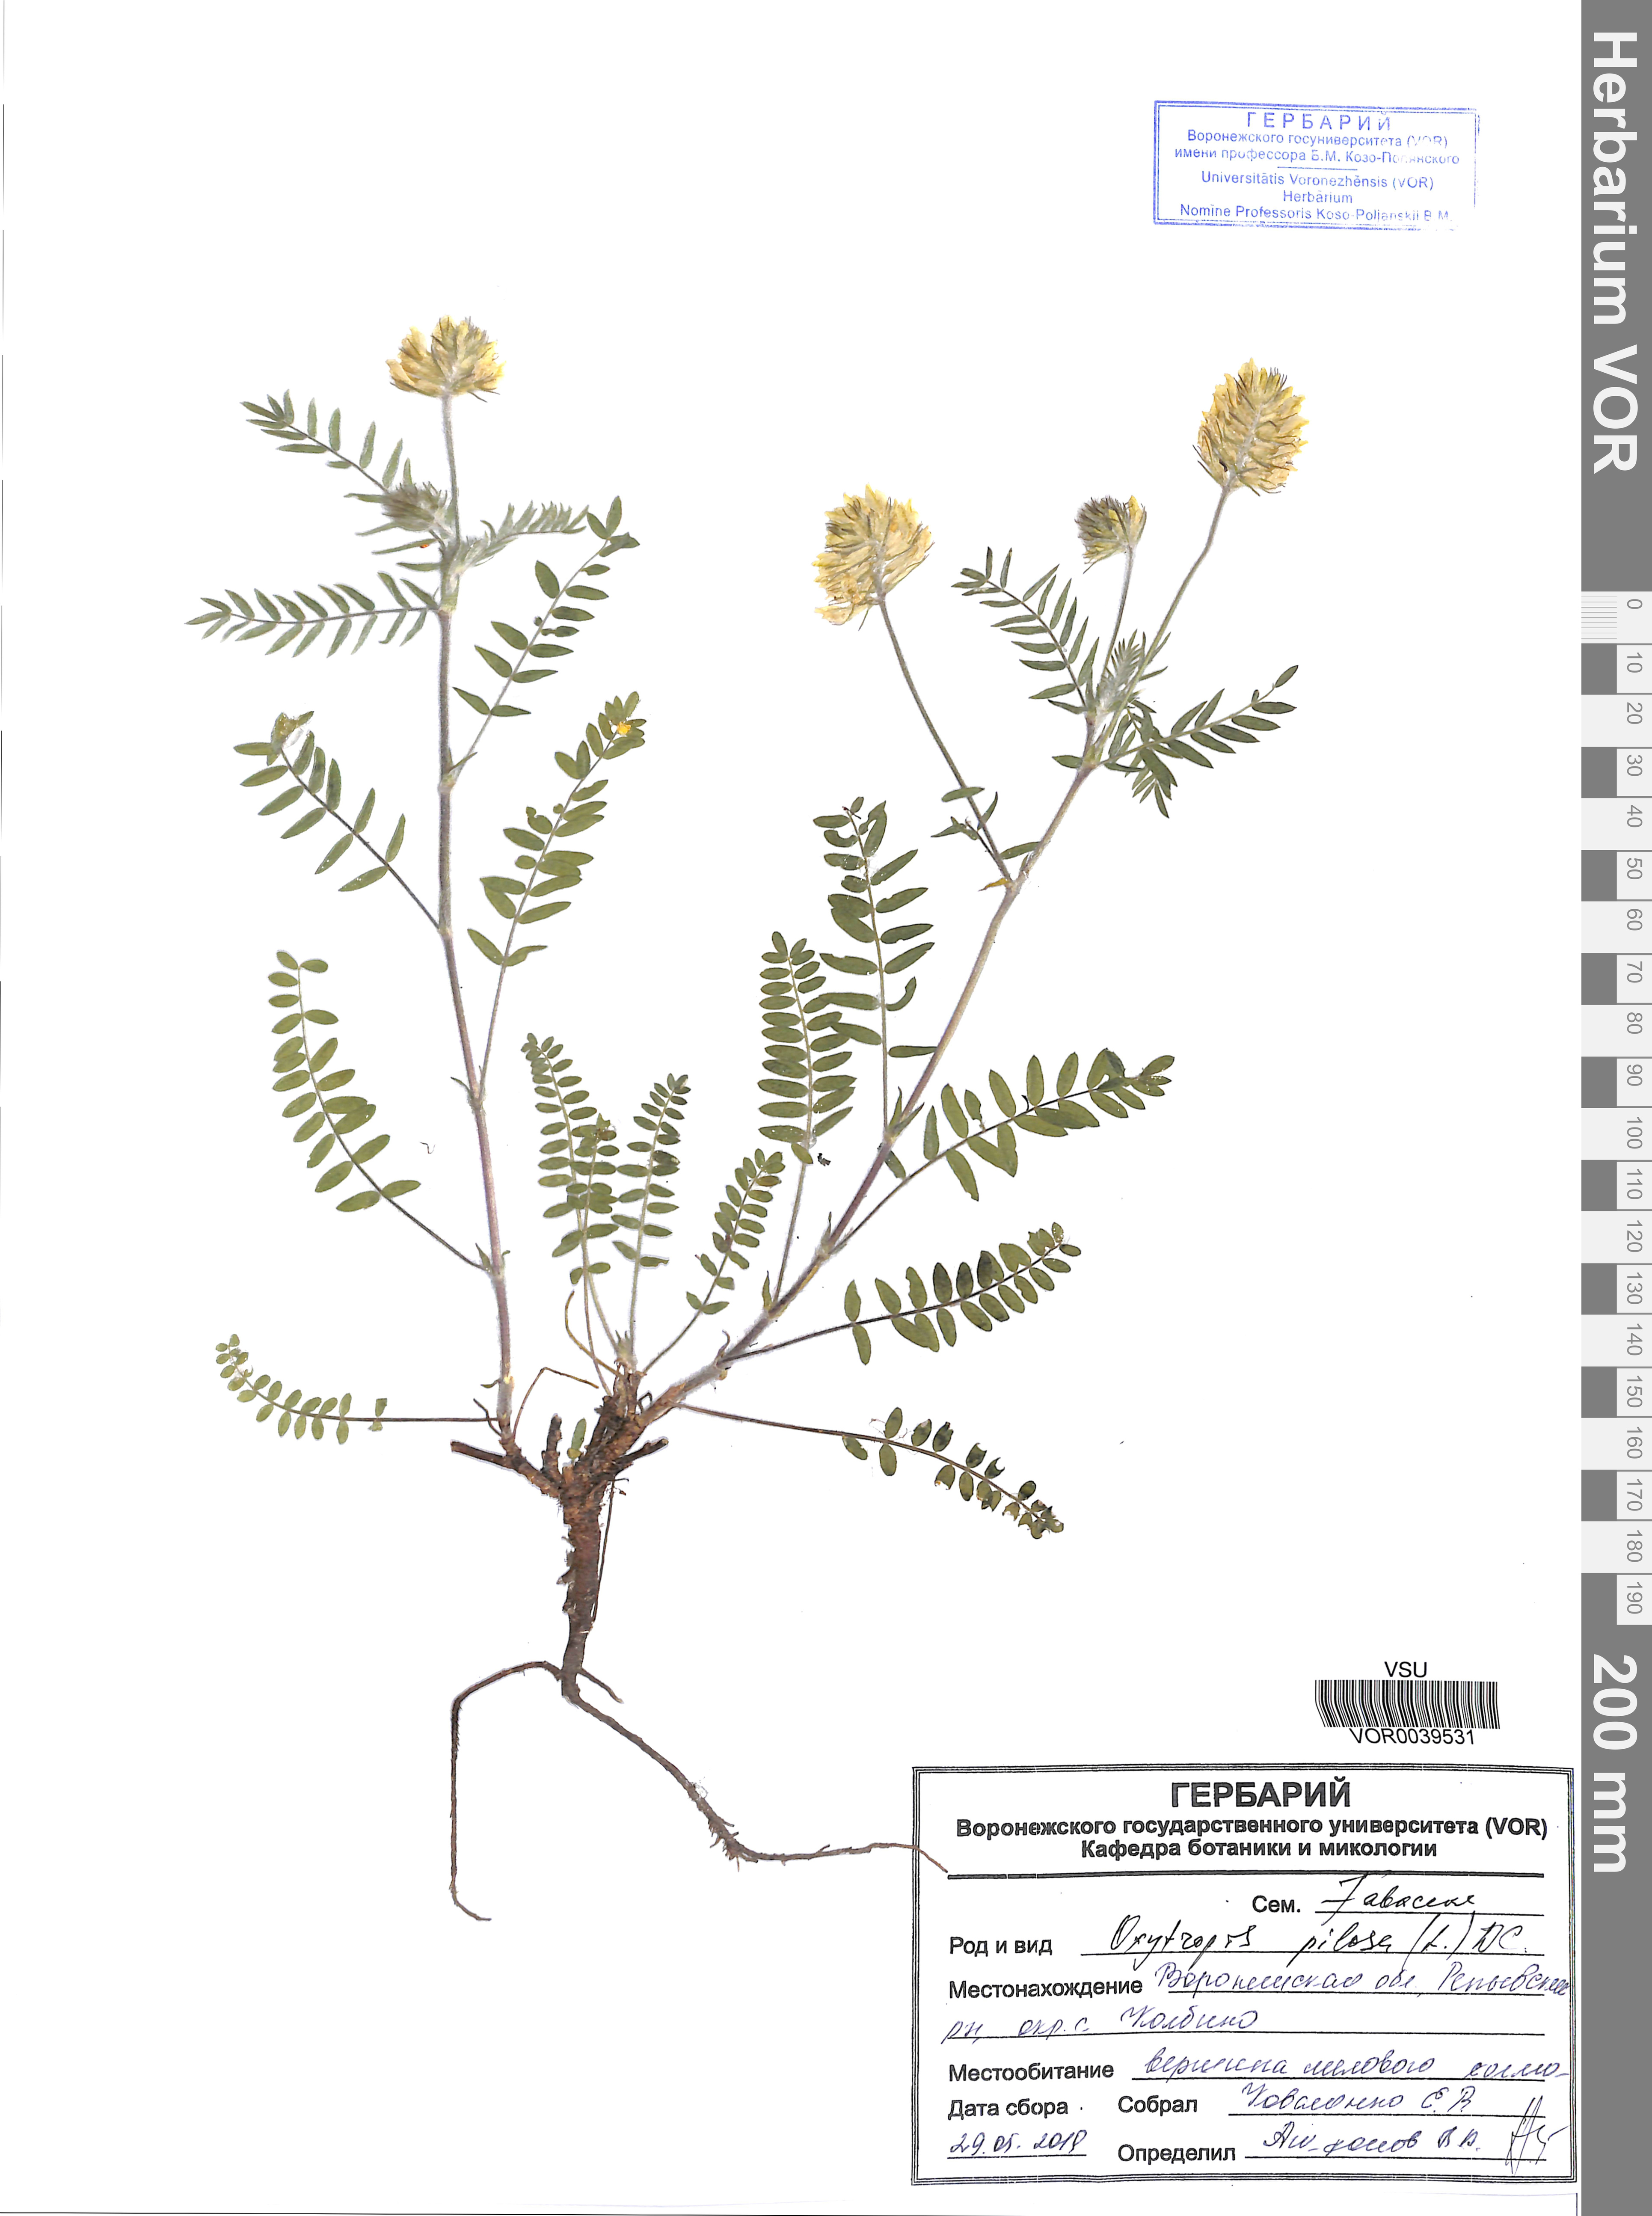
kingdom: Plantae
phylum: Tracheophyta
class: Magnoliopsida
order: Fabales
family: Fabaceae
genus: Oxytropis
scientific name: Oxytropis pilosa
